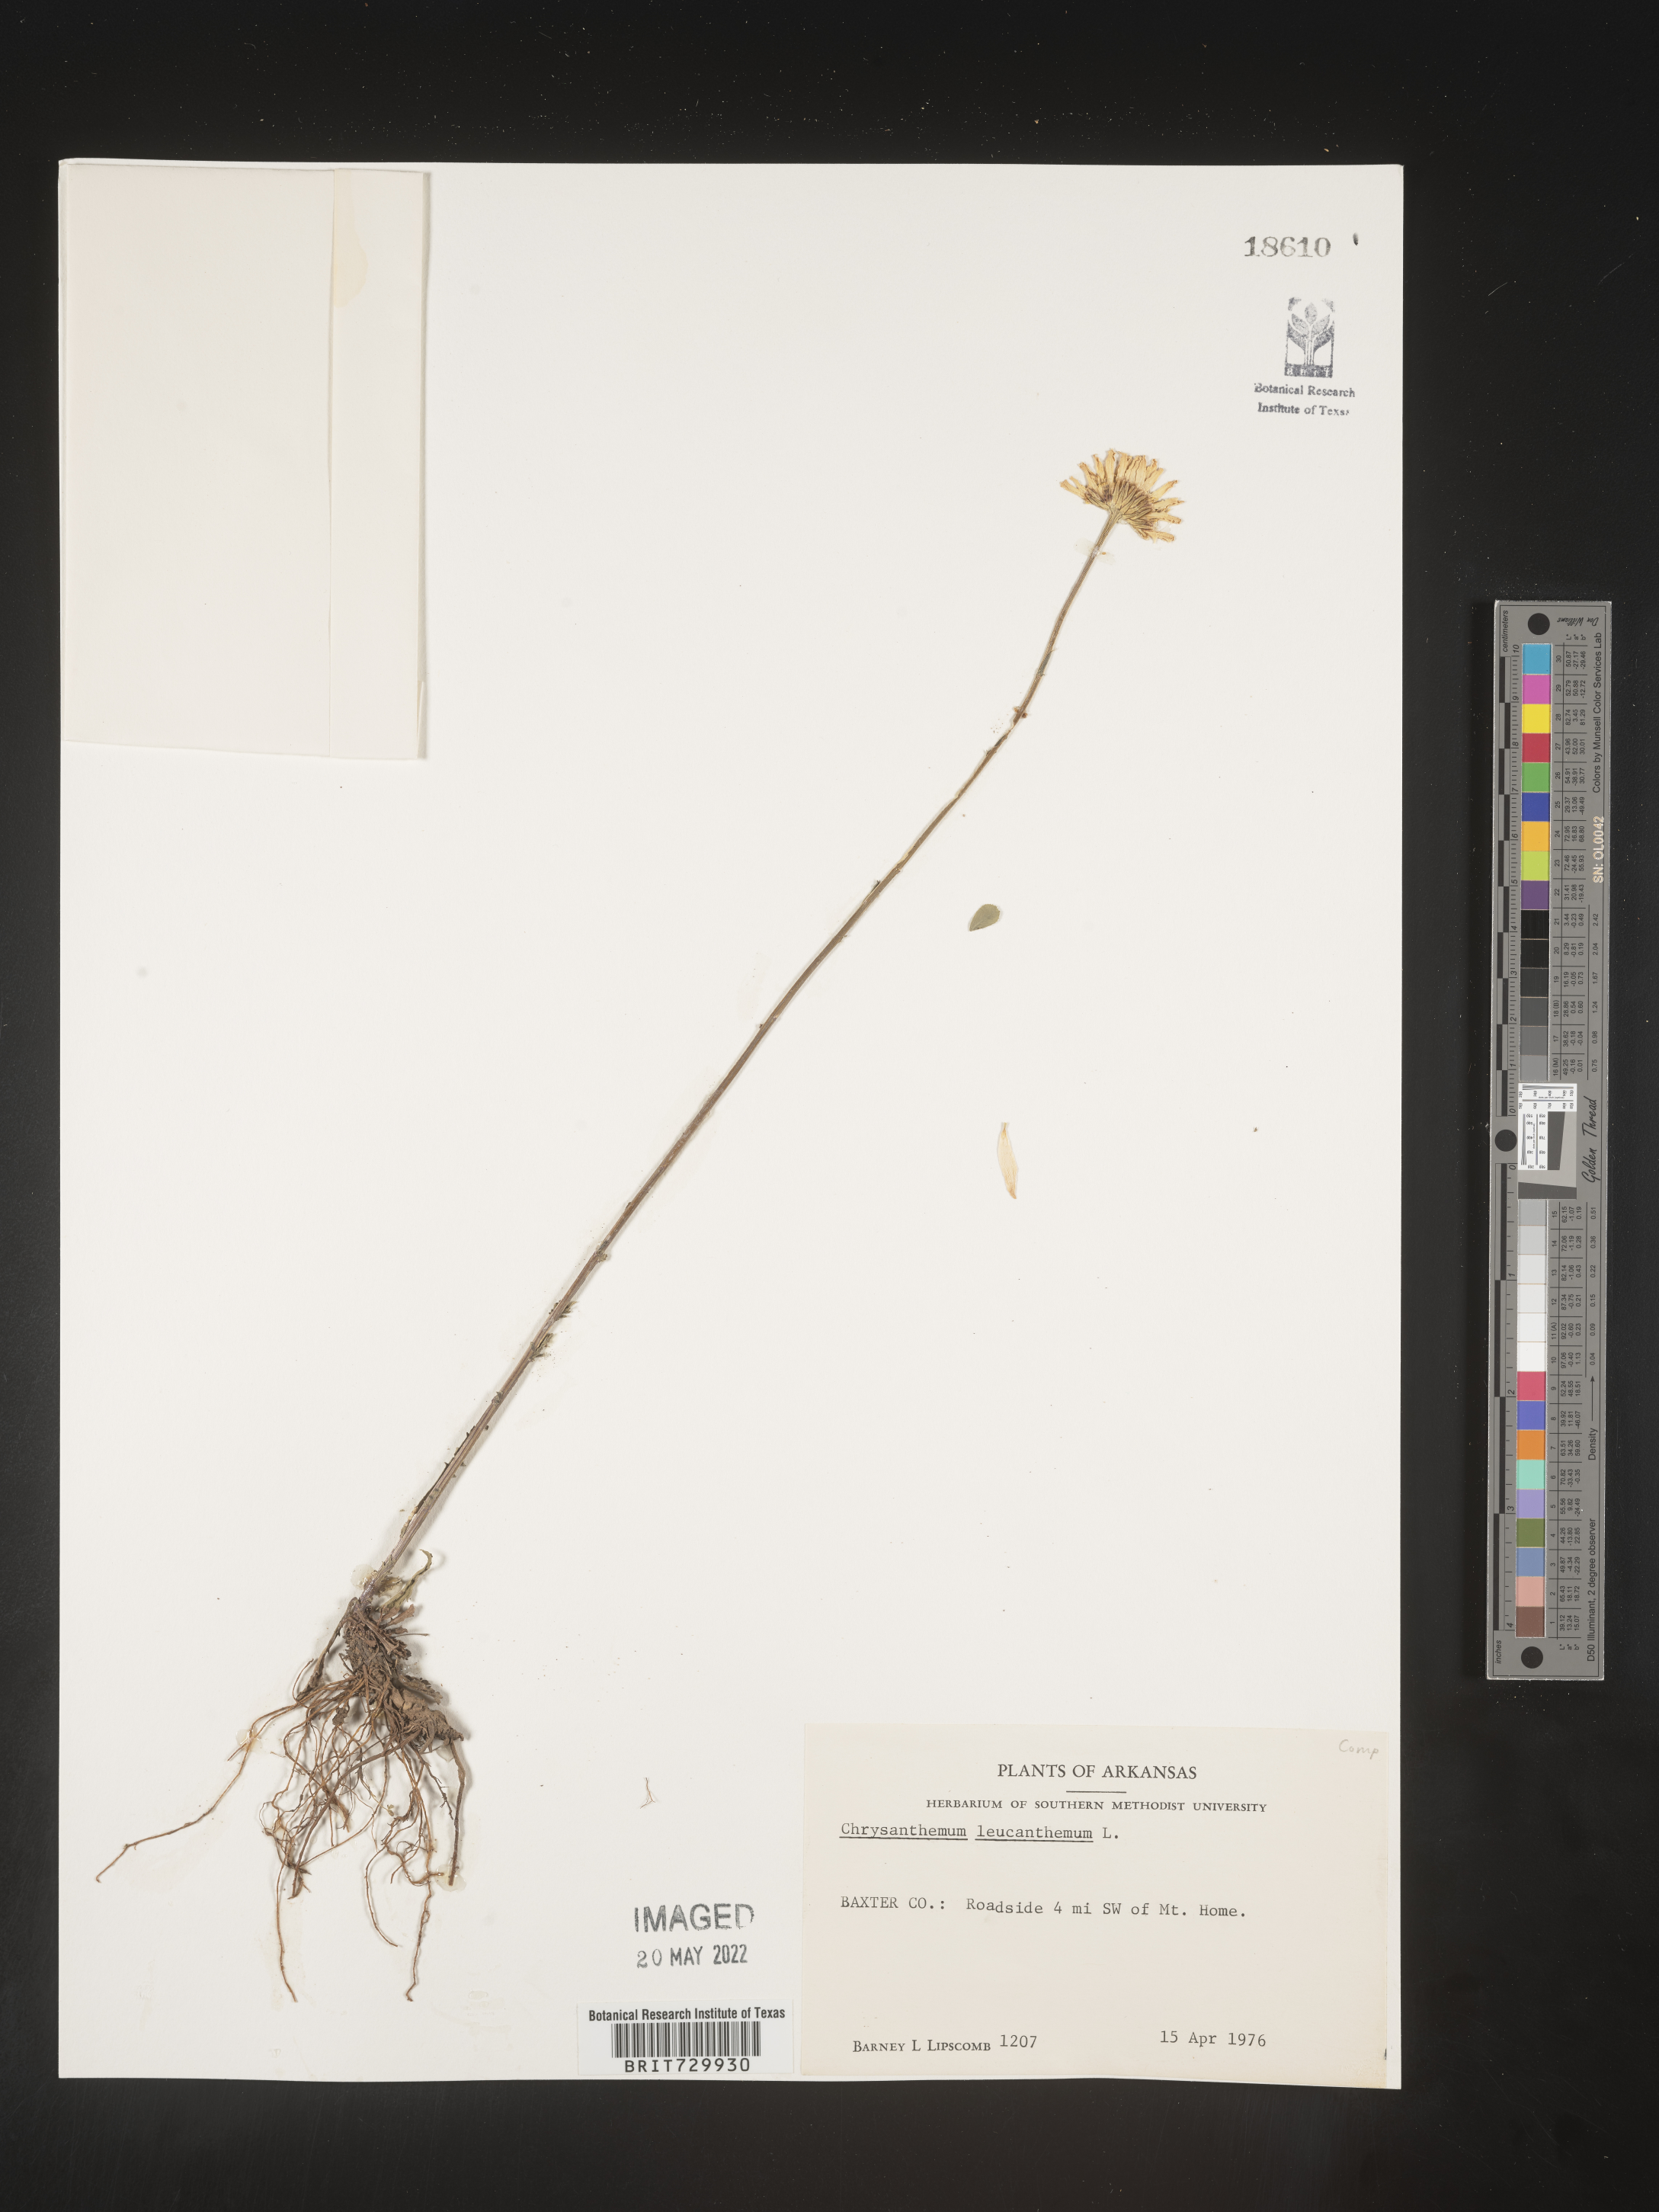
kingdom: Plantae
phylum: Tracheophyta
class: Magnoliopsida
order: Asterales
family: Asteraceae
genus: Leucanthemum
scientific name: Leucanthemum vulgare
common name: Oxeye daisy
